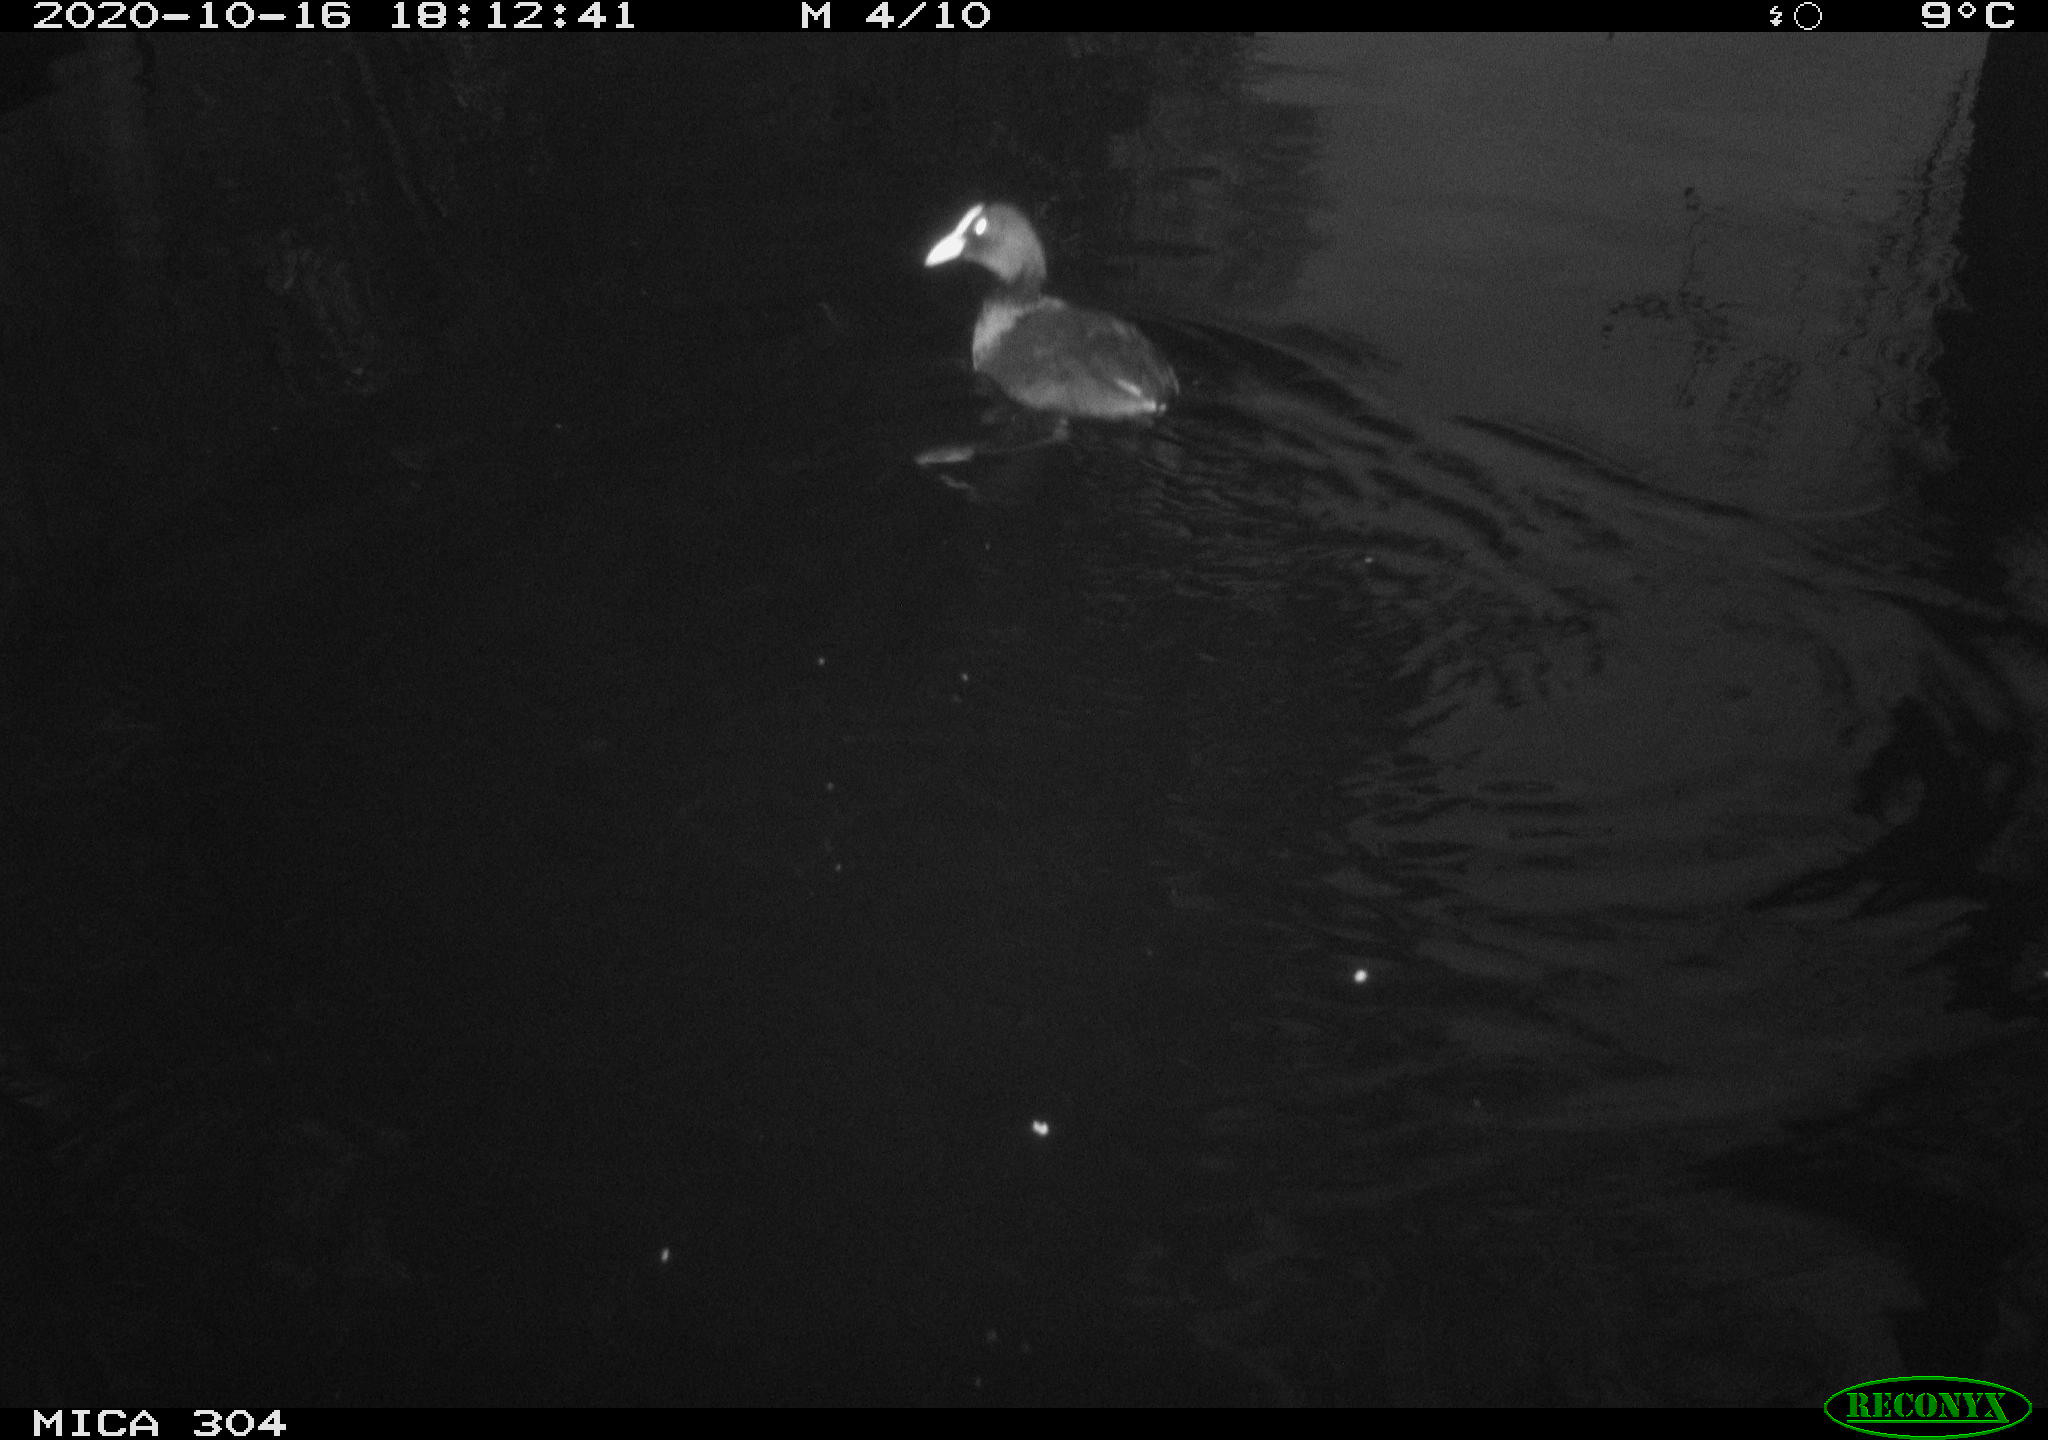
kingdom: Animalia
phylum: Chordata
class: Aves
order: Gruiformes
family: Rallidae
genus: Fulica
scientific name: Fulica atra
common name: Eurasian coot
